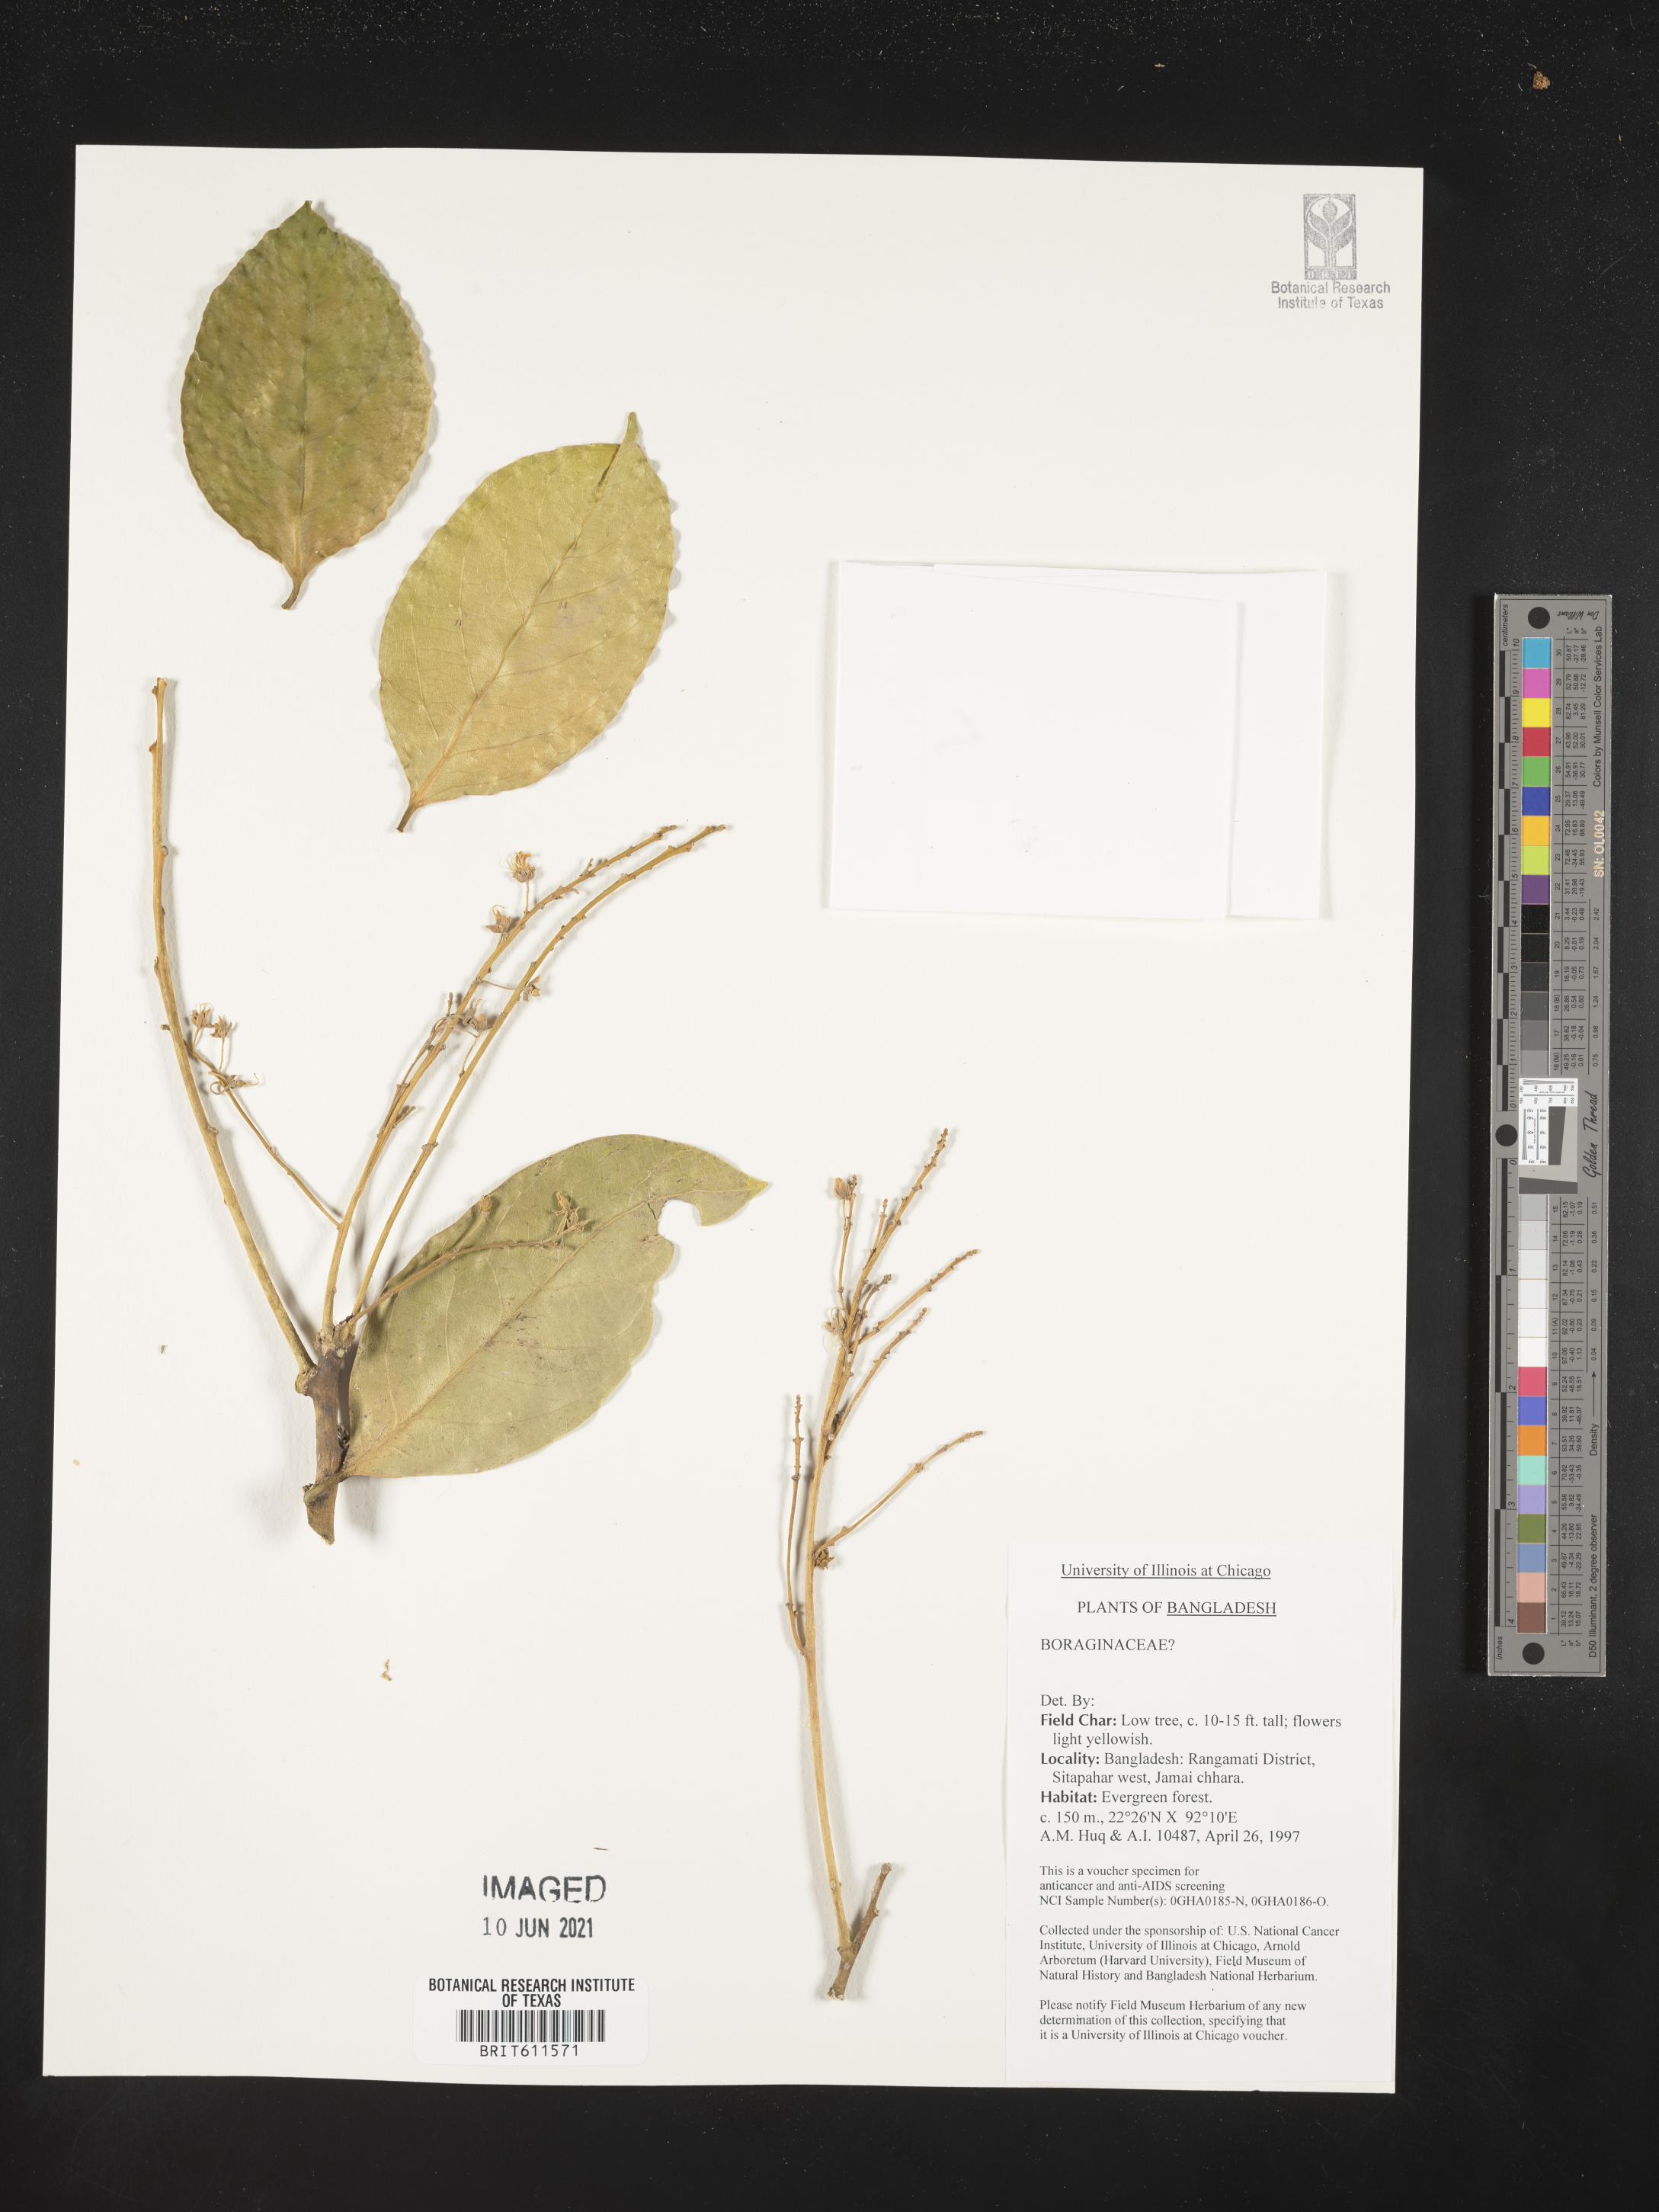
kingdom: Plantae
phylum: Tracheophyta
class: Magnoliopsida
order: Boraginales
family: Boraginaceae
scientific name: Boraginaceae
